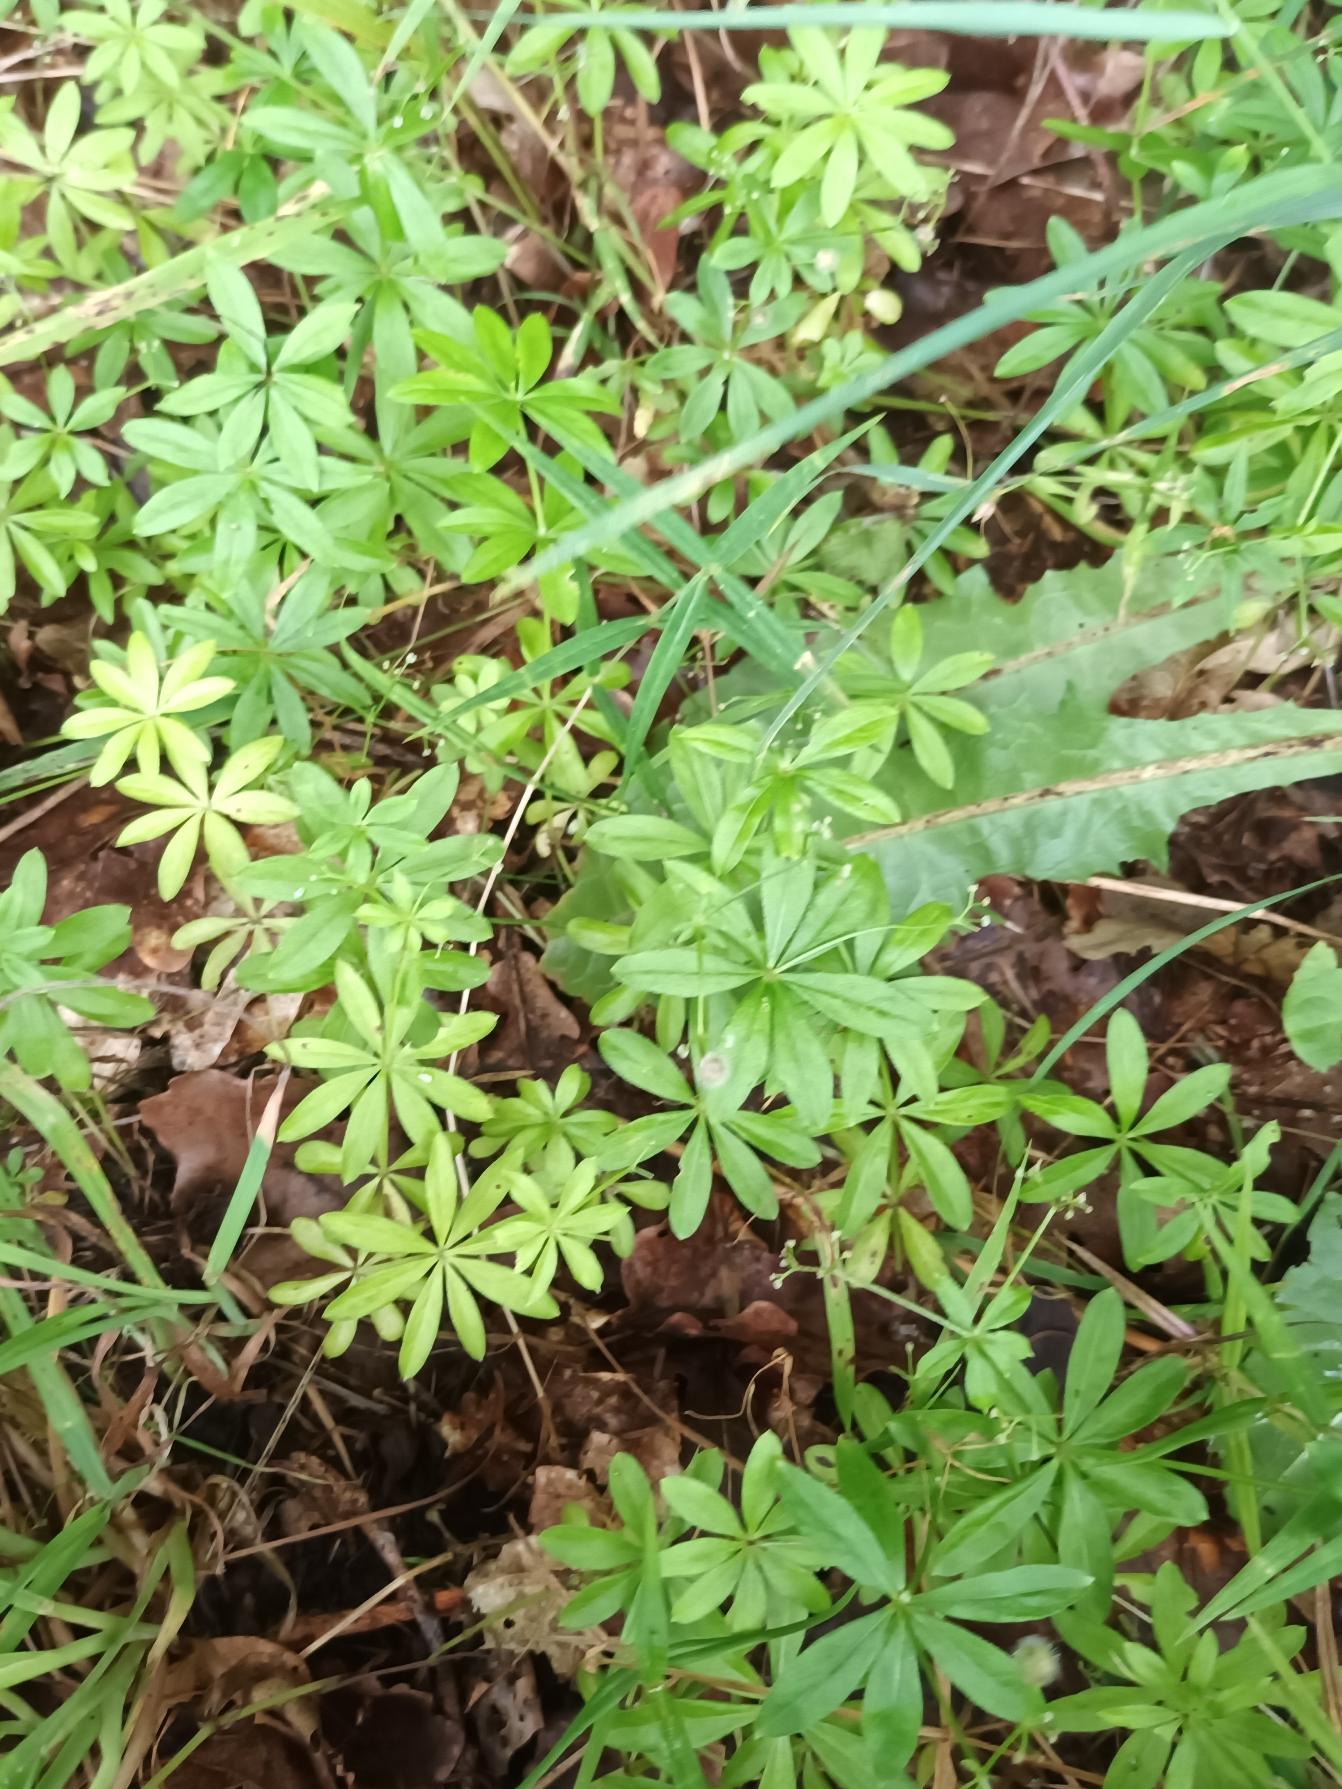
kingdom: Plantae
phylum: Tracheophyta
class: Magnoliopsida
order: Gentianales
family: Rubiaceae
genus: Galium
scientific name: Galium odoratum
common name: Skovmærke
